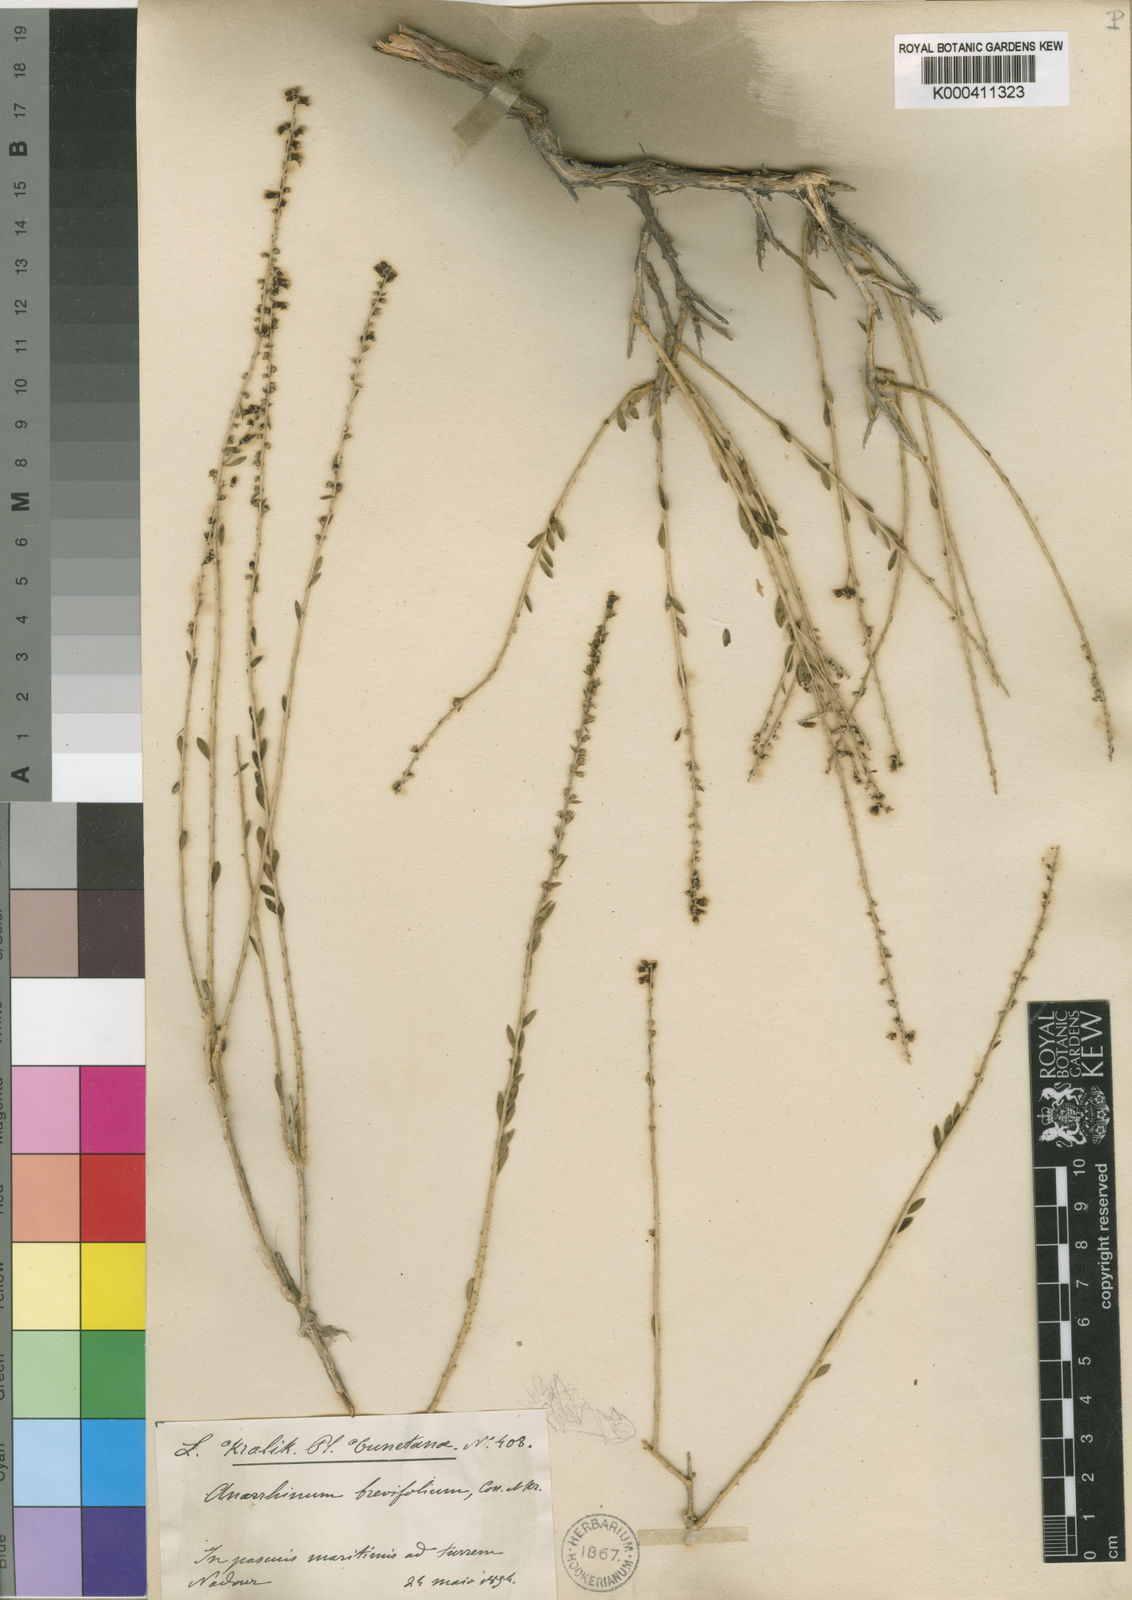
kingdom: Plantae
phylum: Tracheophyta
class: Magnoliopsida
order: Lamiales
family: Plantaginaceae
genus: Anarrhinum
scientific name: Anarrhinum fruticosum
